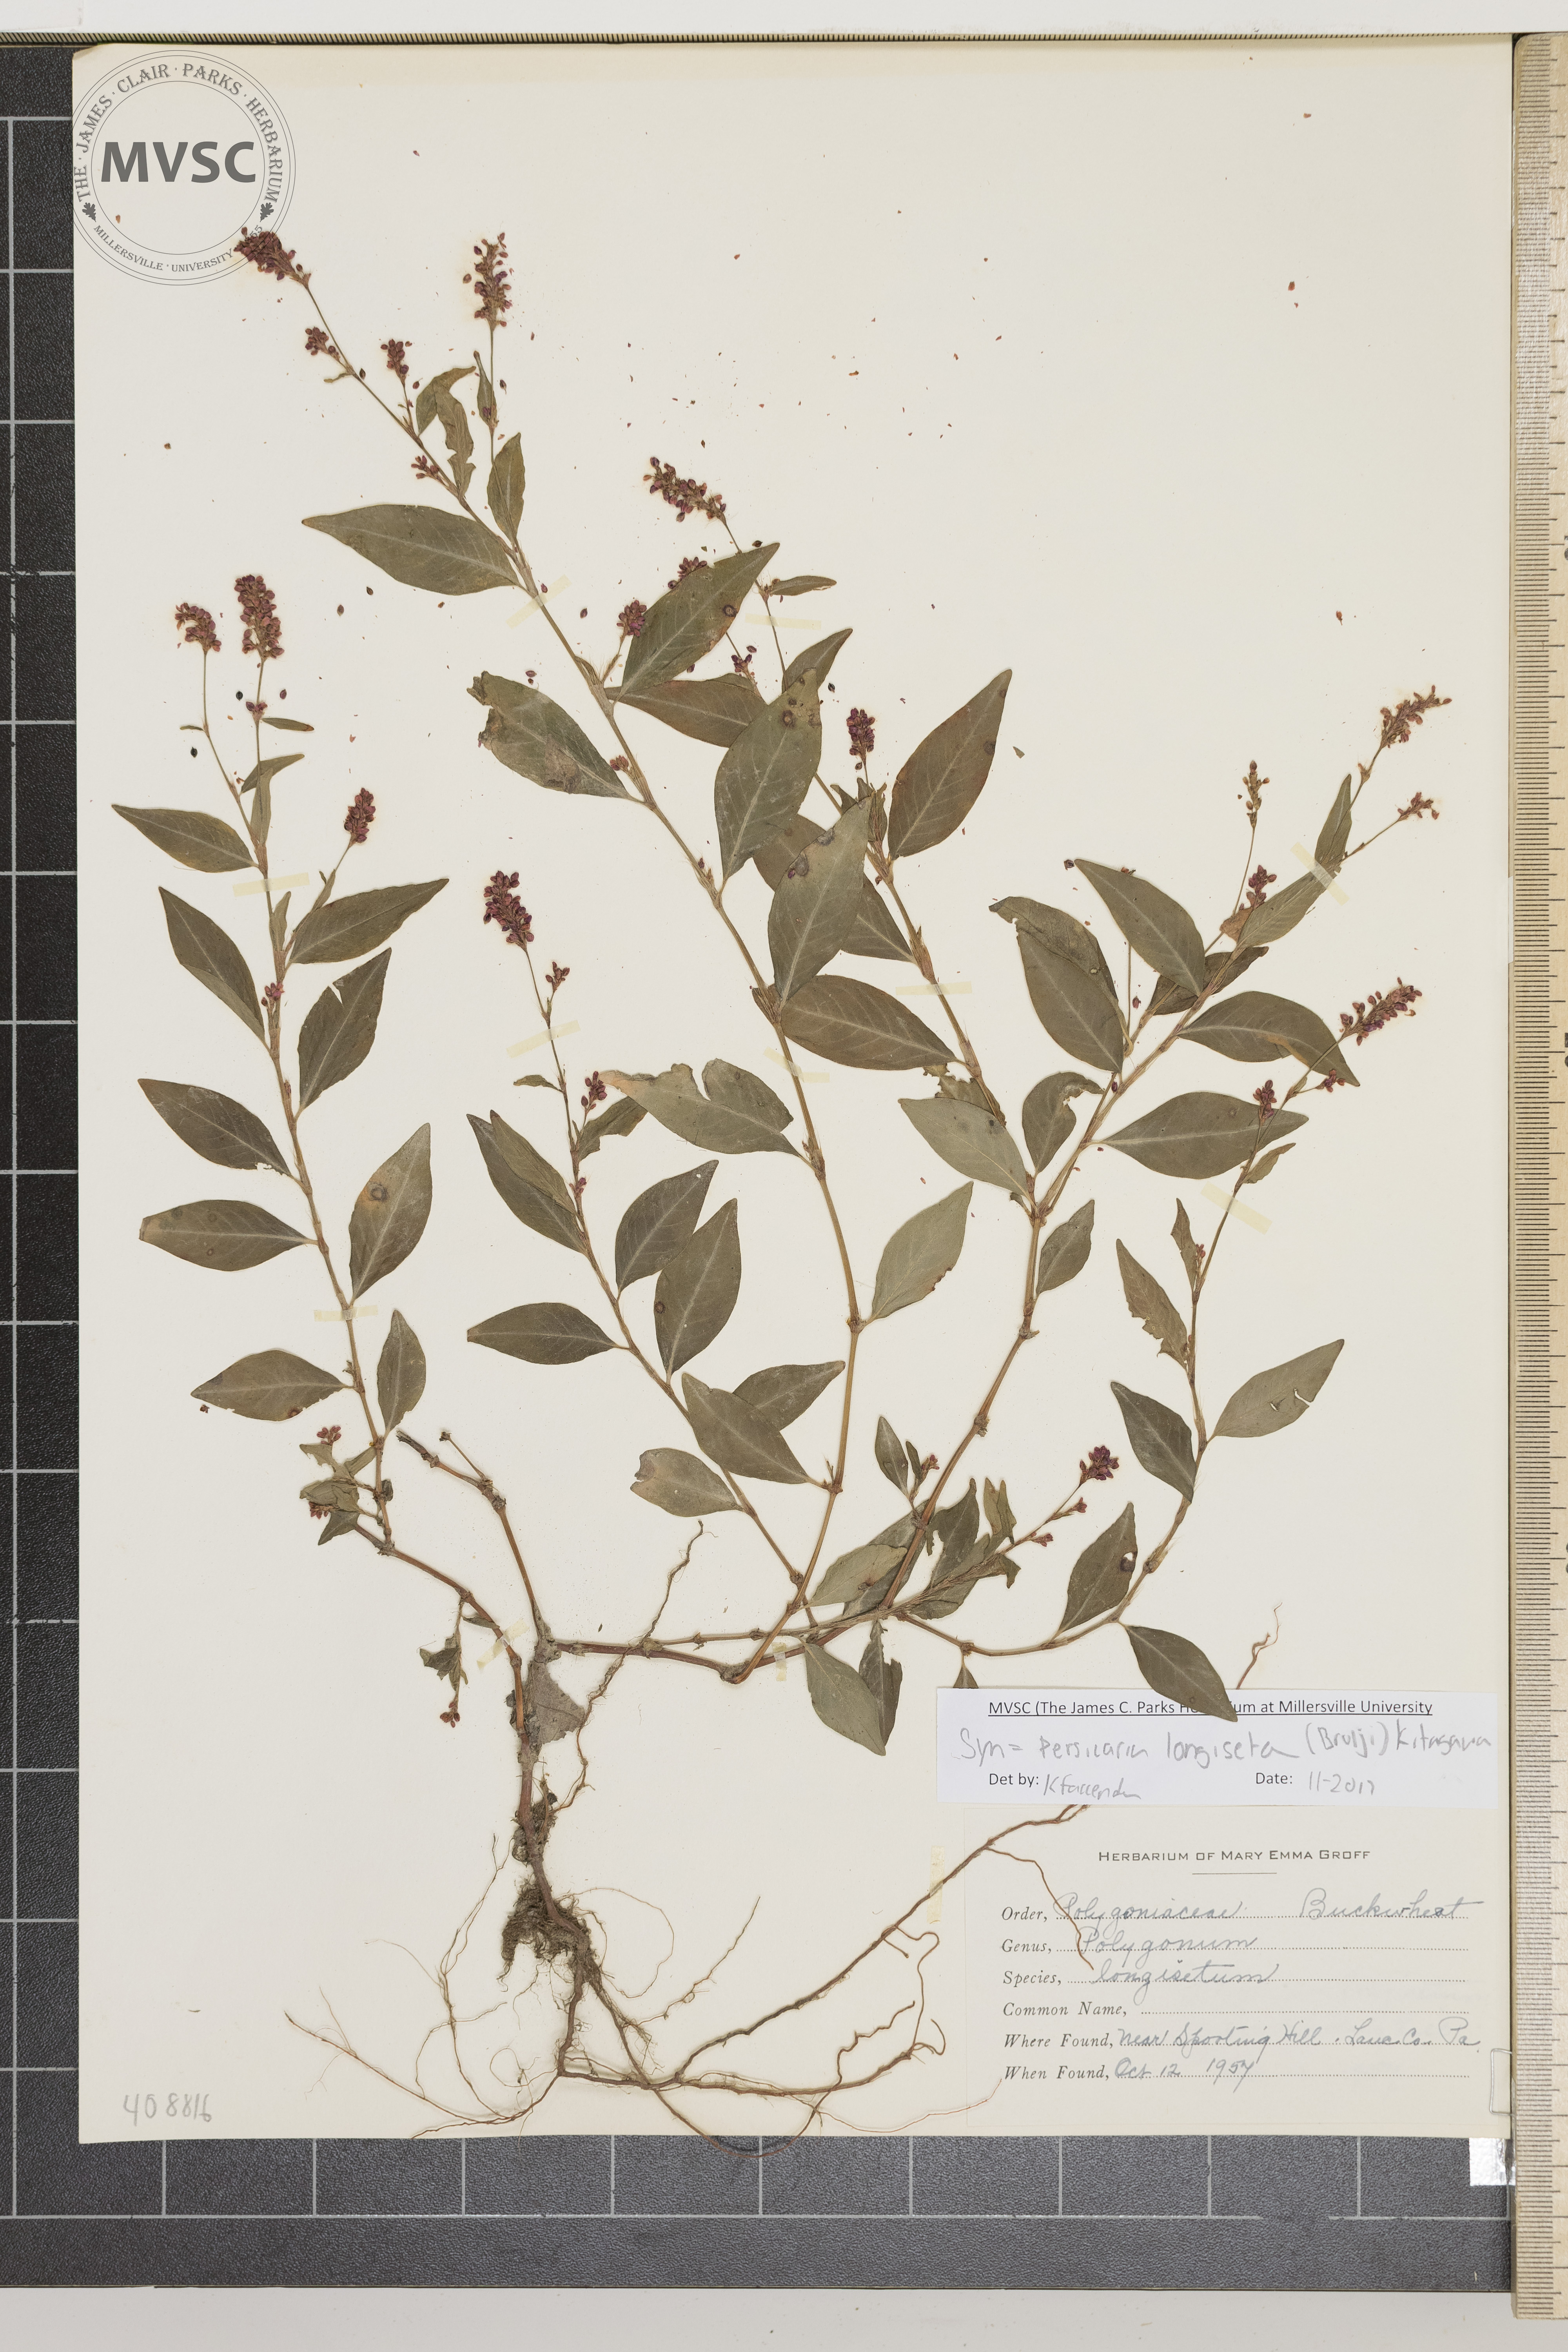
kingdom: Plantae
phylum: Tracheophyta
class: Magnoliopsida
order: Caryophyllales
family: Polygonaceae
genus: Persicaria
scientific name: Persicaria longiseta
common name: Bristly lady's-thumb
